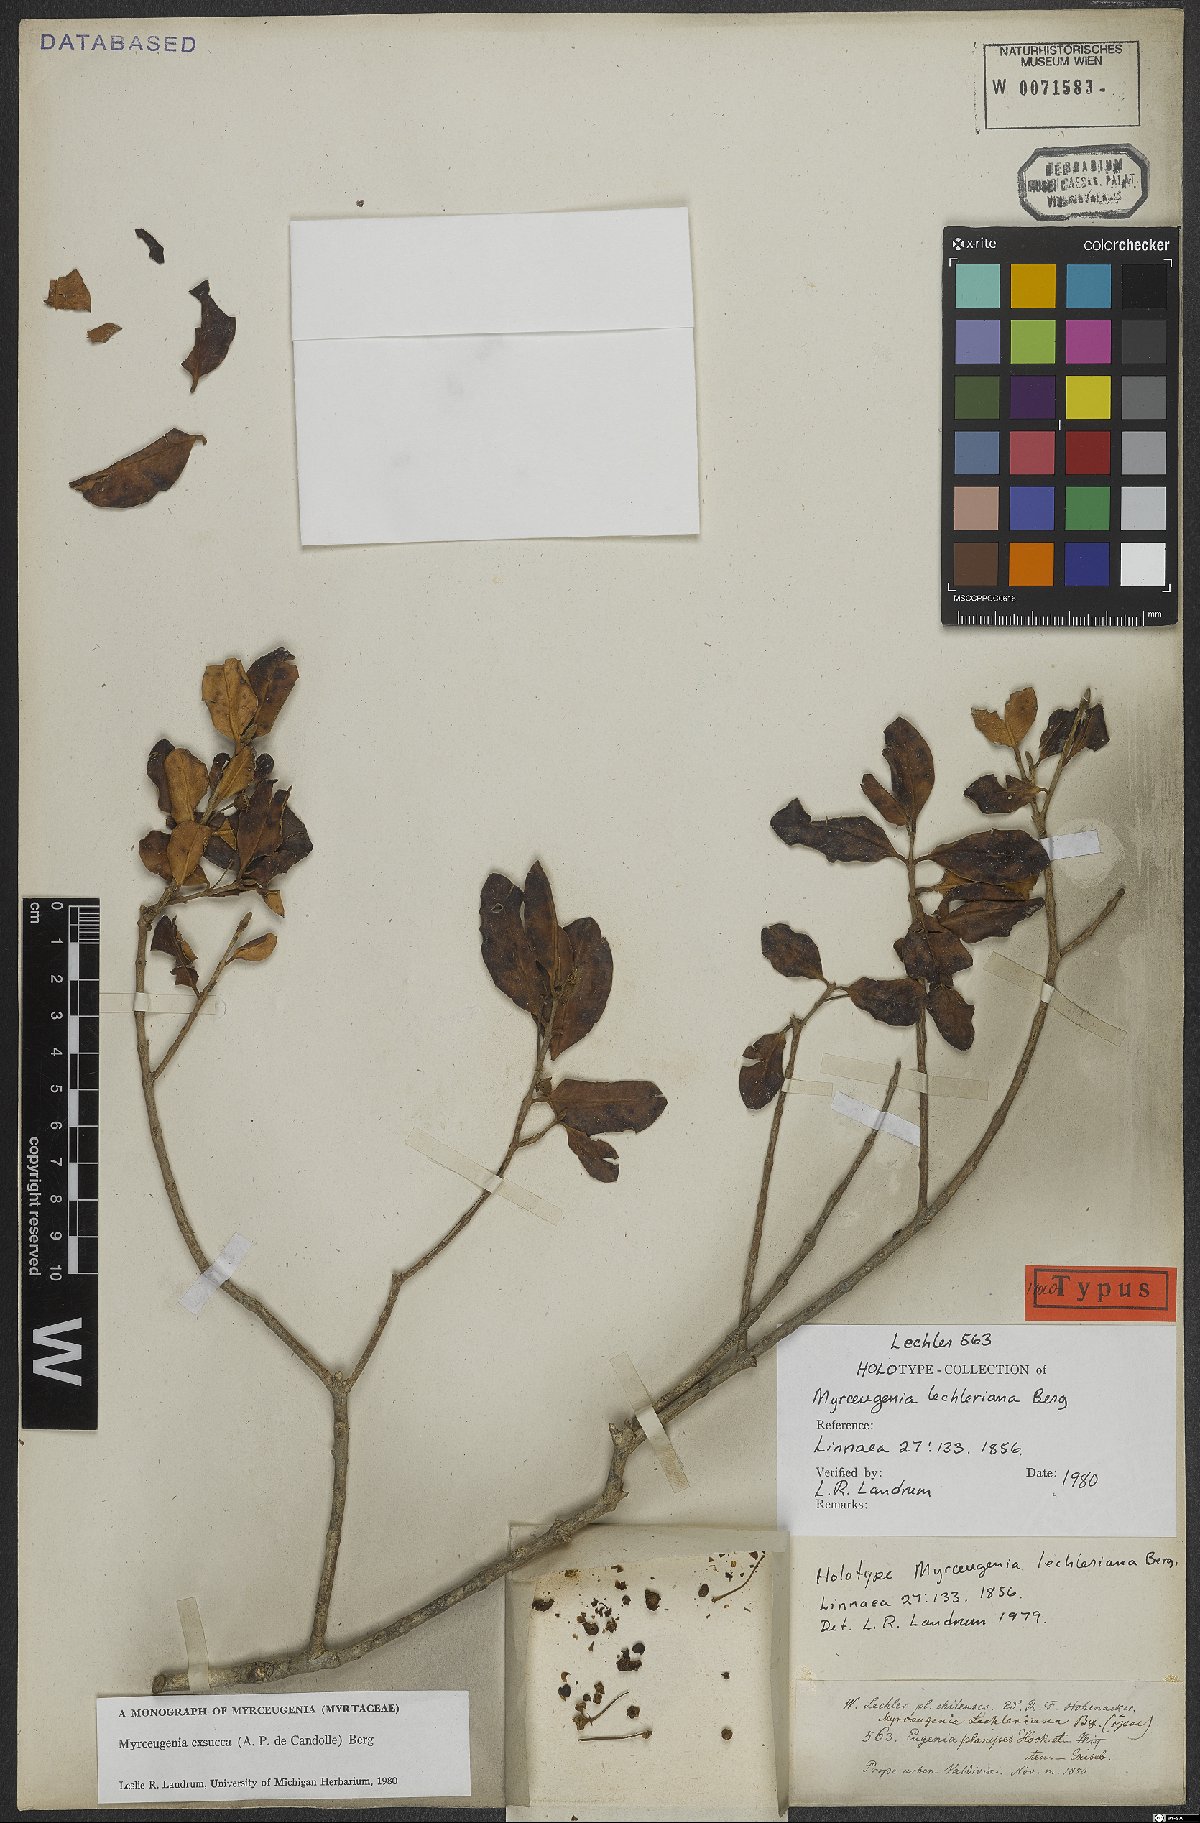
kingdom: Plantae
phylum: Tracheophyta
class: Magnoliopsida
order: Myrtales
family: Myrtaceae
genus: Myrceugenia
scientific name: Myrceugenia exsucca
